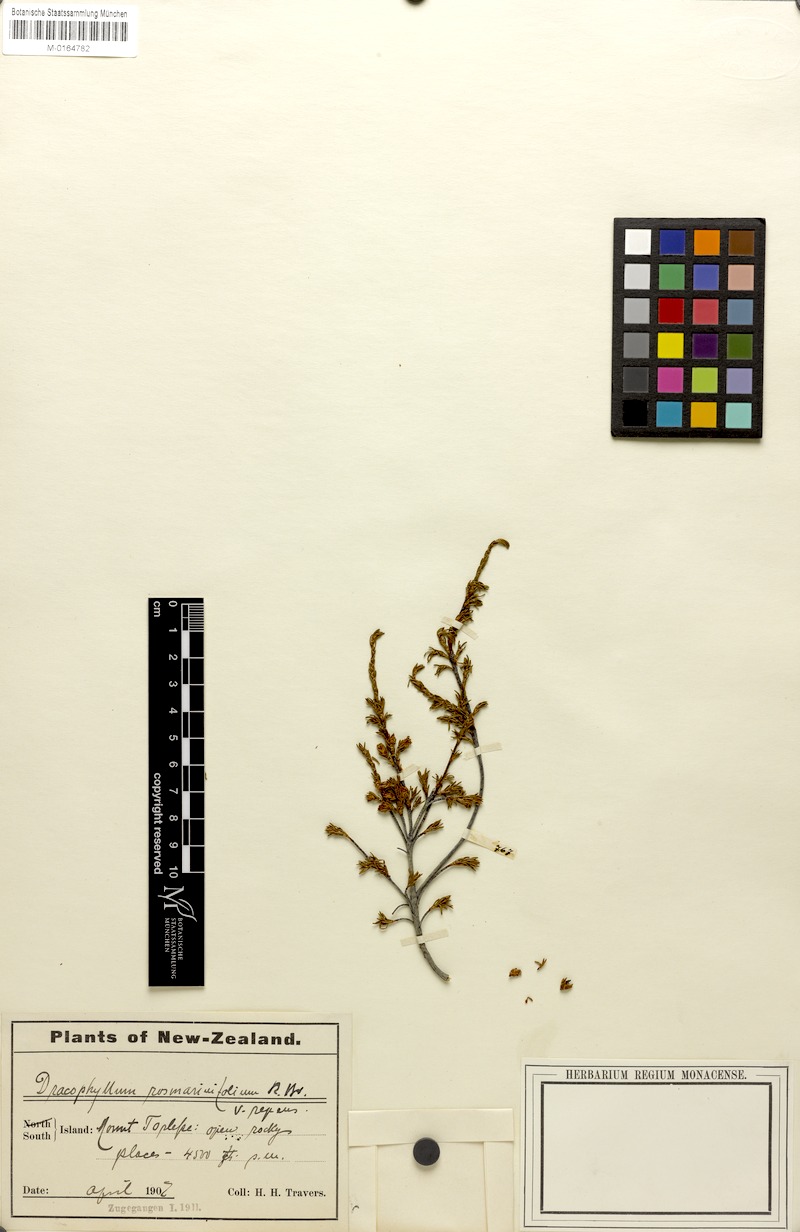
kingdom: Plantae
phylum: Tracheophyta
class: Magnoliopsida
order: Ericales
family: Ericaceae
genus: Dracophyllum
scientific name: Dracophyllum rosmarinifolium
